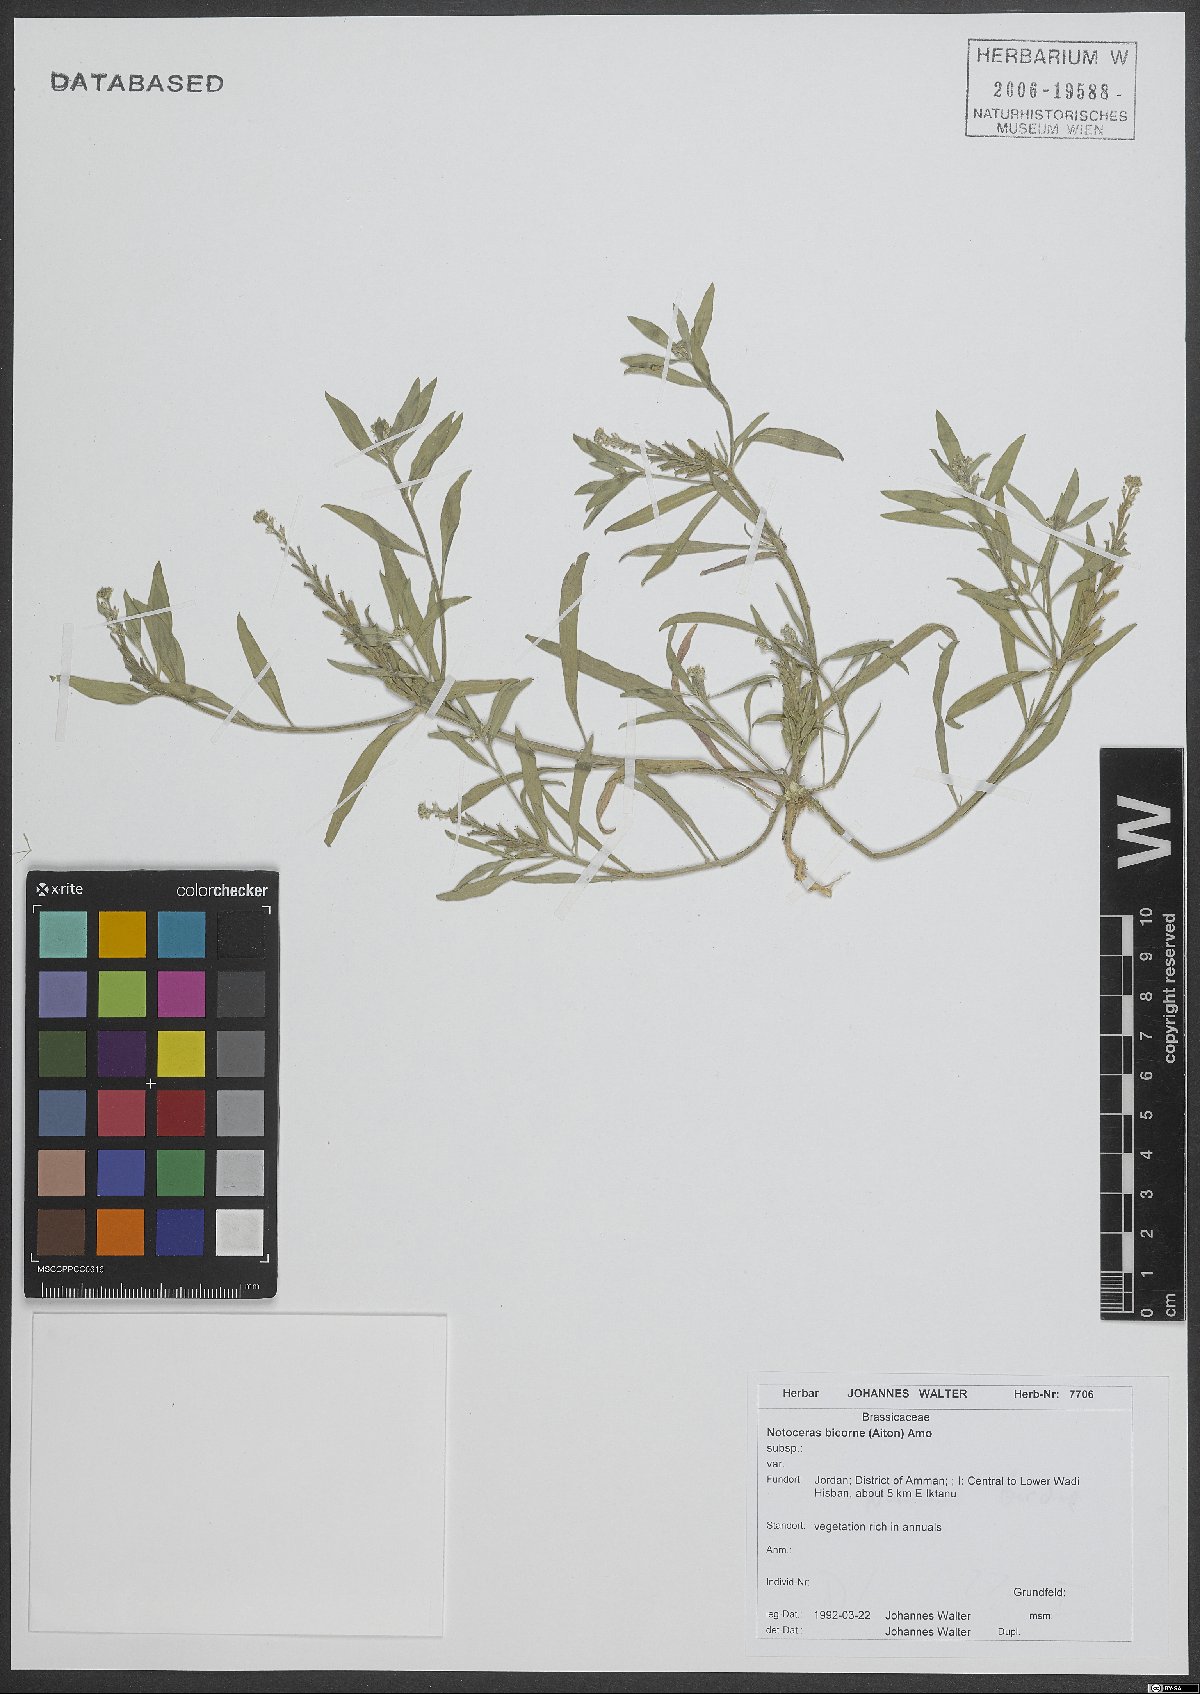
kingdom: Plantae
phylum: Tracheophyta
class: Magnoliopsida
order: Brassicales
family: Brassicaceae
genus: Notoceras
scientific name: Notoceras bicorne
